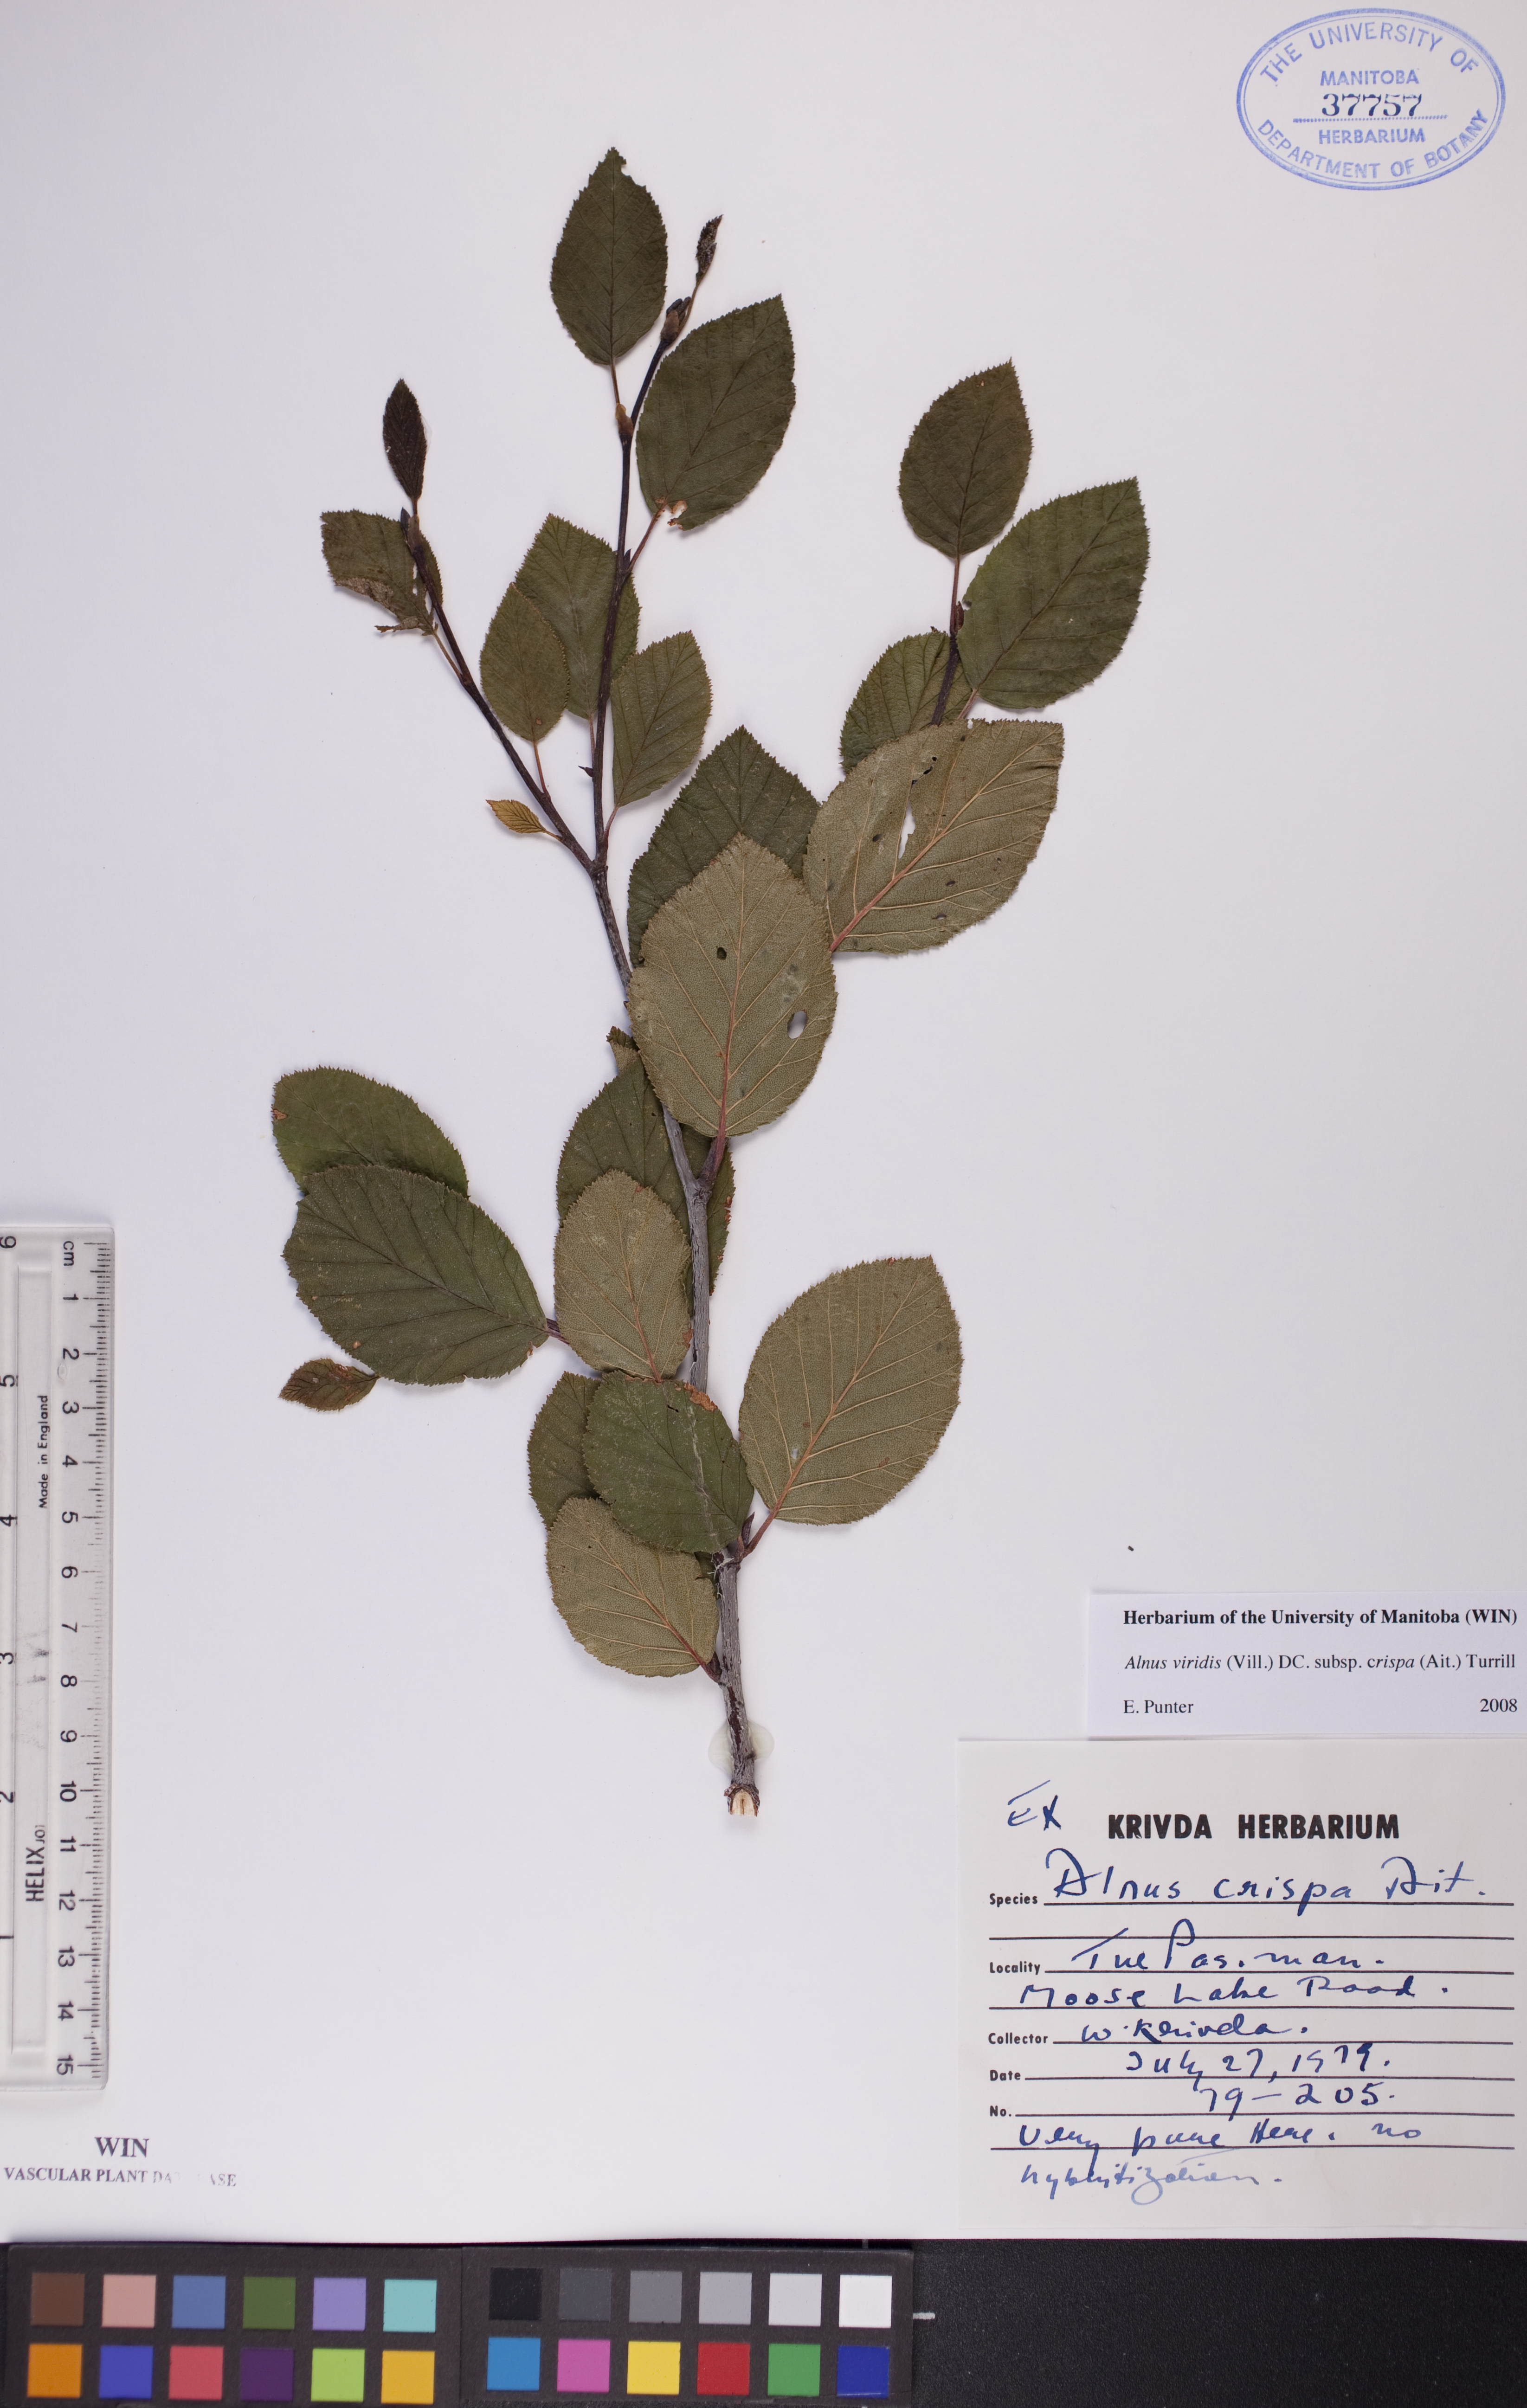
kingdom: Plantae
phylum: Tracheophyta
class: Magnoliopsida
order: Fagales
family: Betulaceae
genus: Alnus
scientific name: Alnus alnobetula
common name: Green alder
